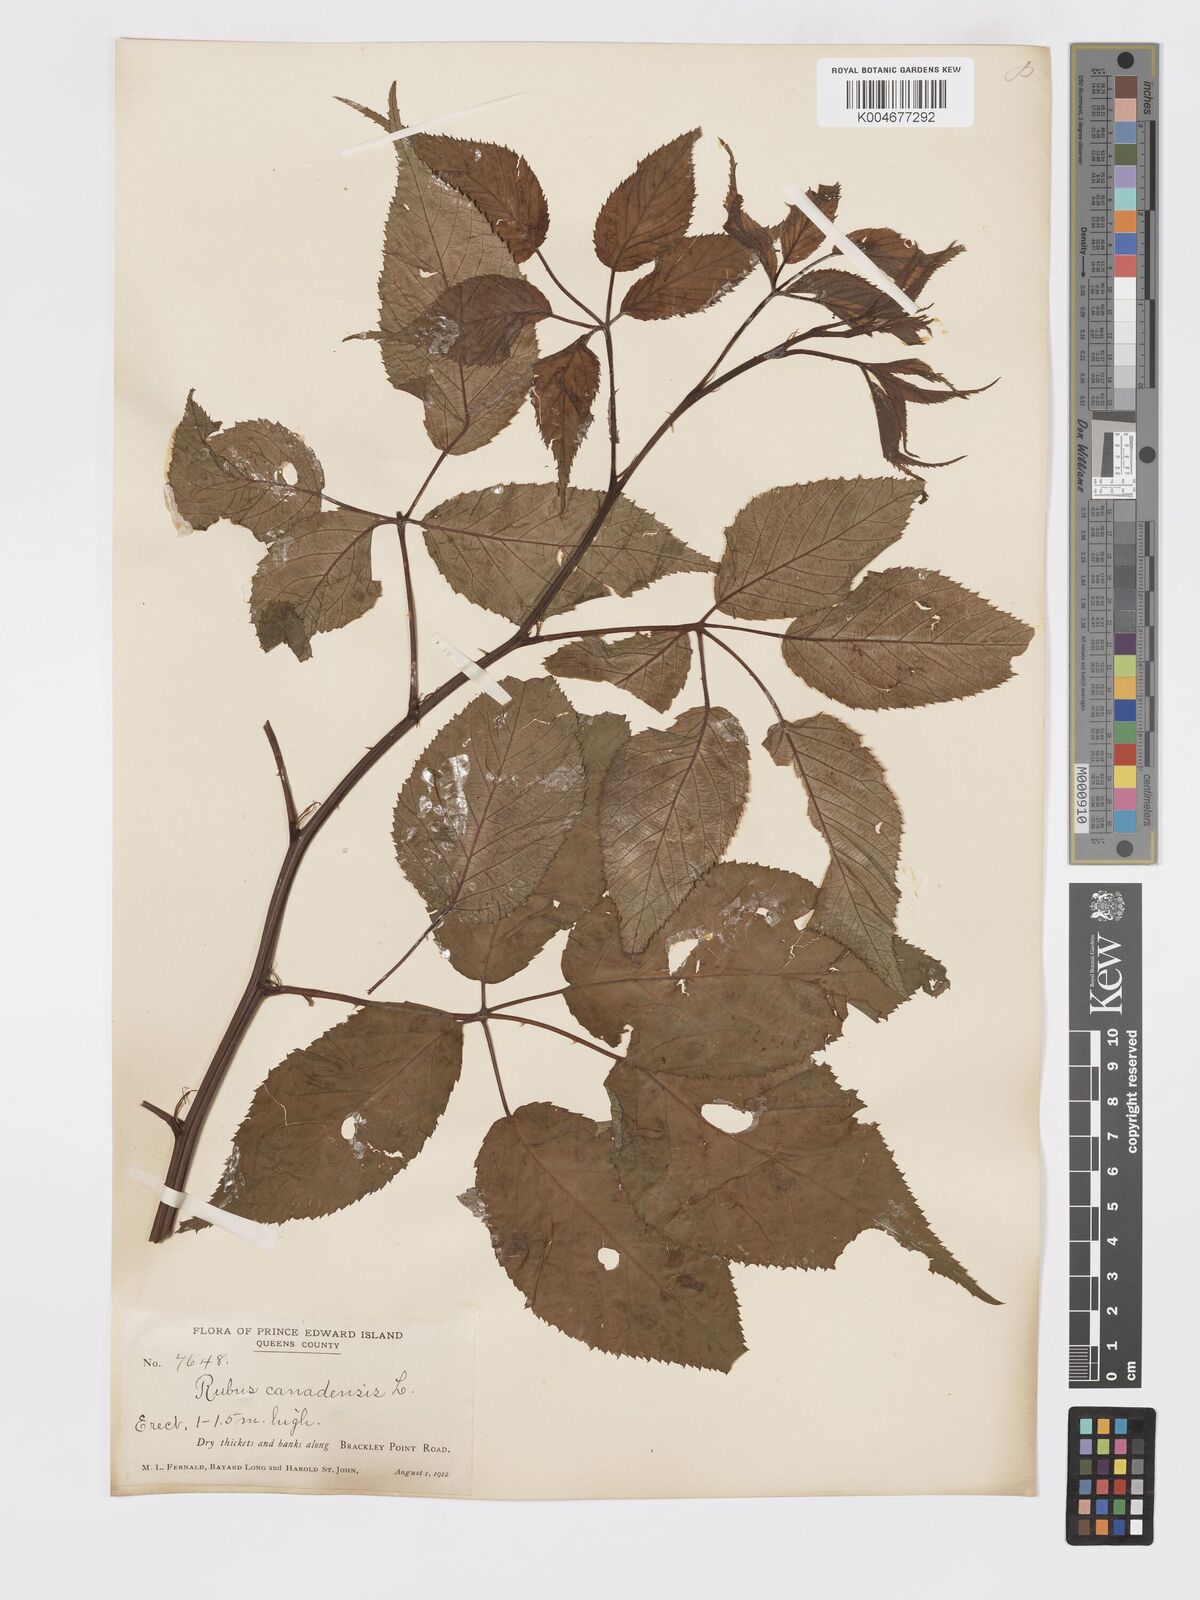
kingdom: Plantae
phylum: Tracheophyta
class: Magnoliopsida
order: Rosales
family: Rosaceae
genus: Rubus
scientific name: Rubus canadensis
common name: Smooth blackberry
